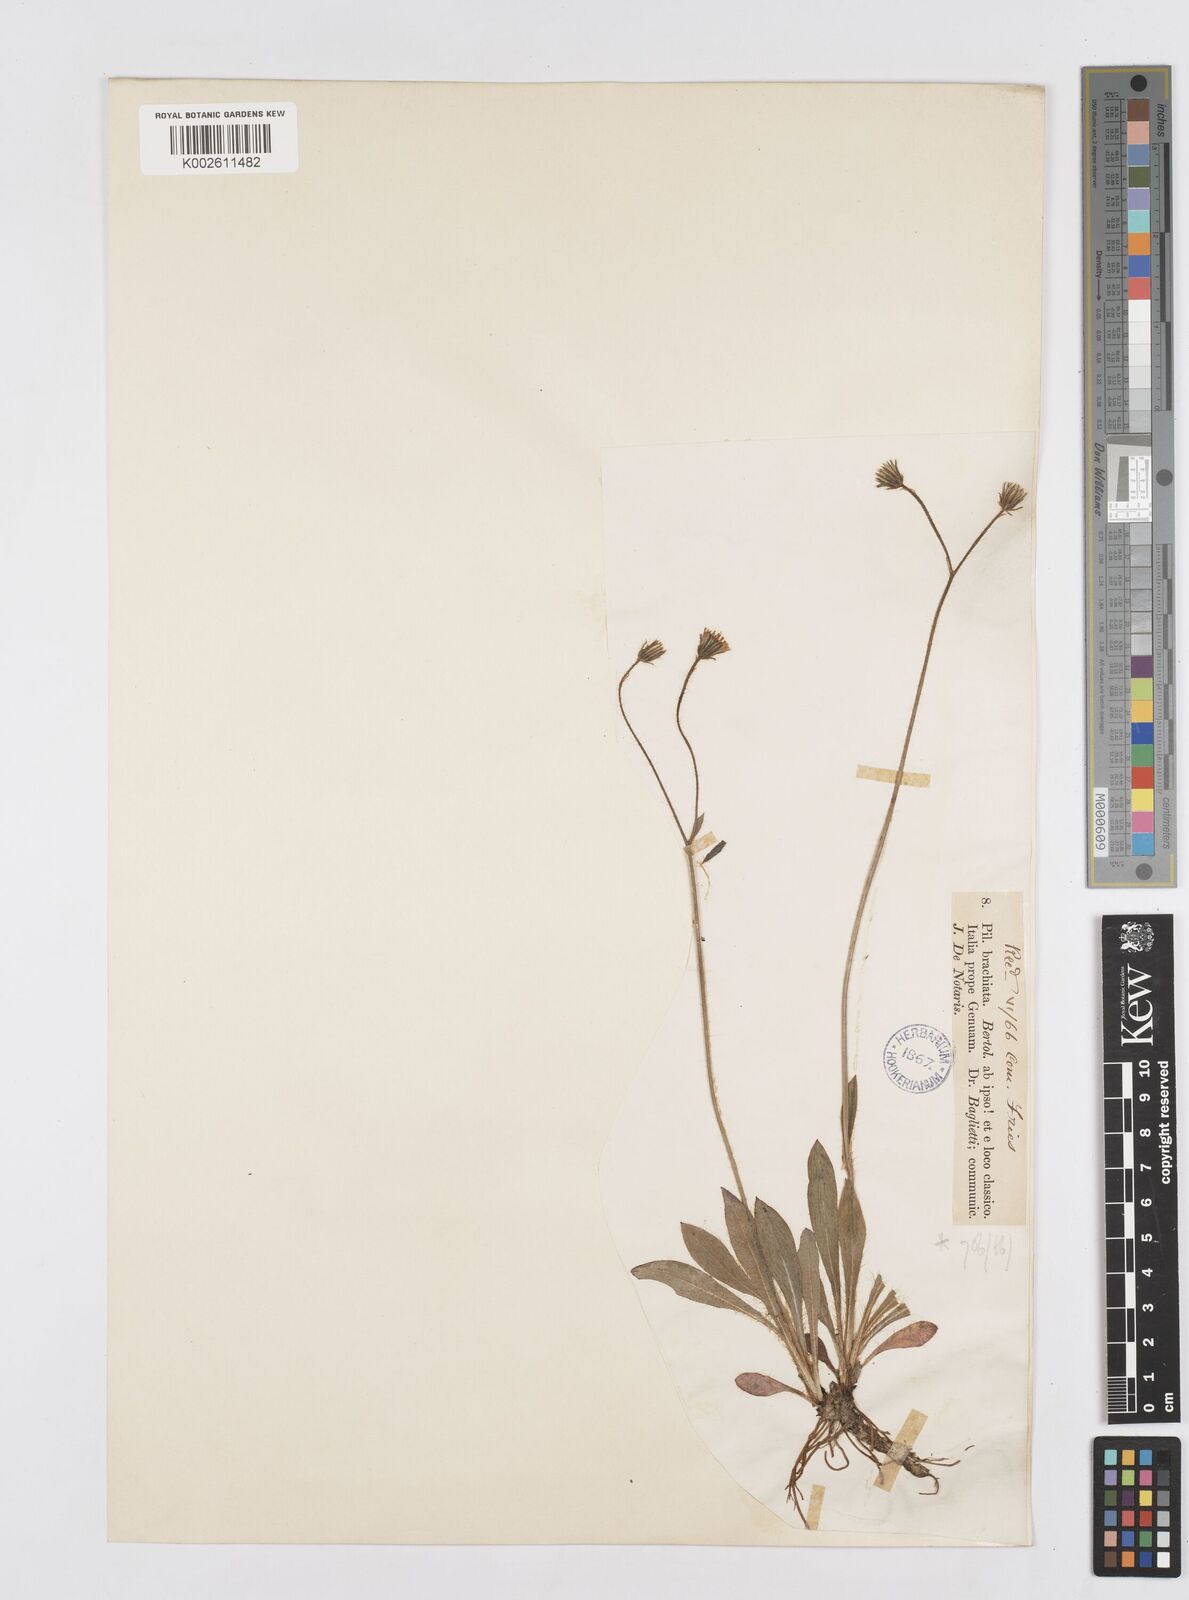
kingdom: Plantae
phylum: Tracheophyta
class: Magnoliopsida
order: Asterales
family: Asteraceae
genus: Pilosella
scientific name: Pilosella acutifolia
